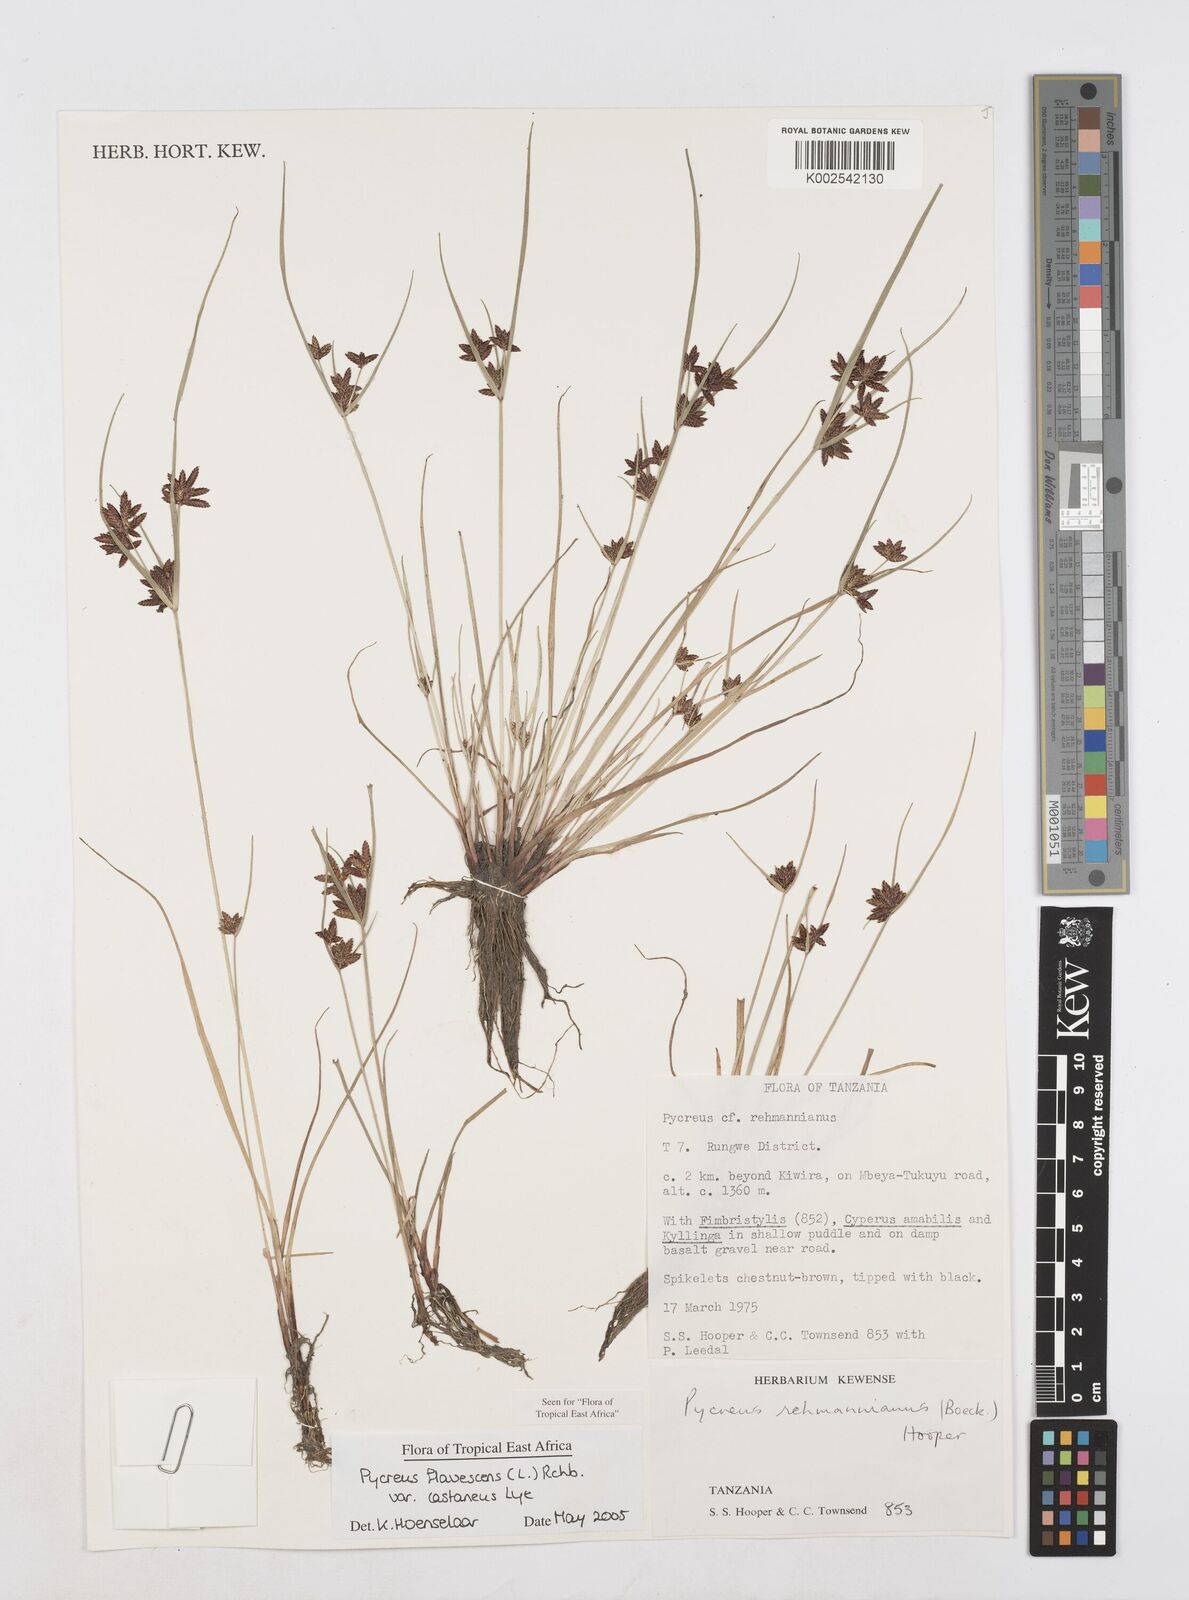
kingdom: Plantae
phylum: Tracheophyta
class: Liliopsida
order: Poales
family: Cyperaceae
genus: Cyperus
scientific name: Cyperus flavescens
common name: Yellow galingale
